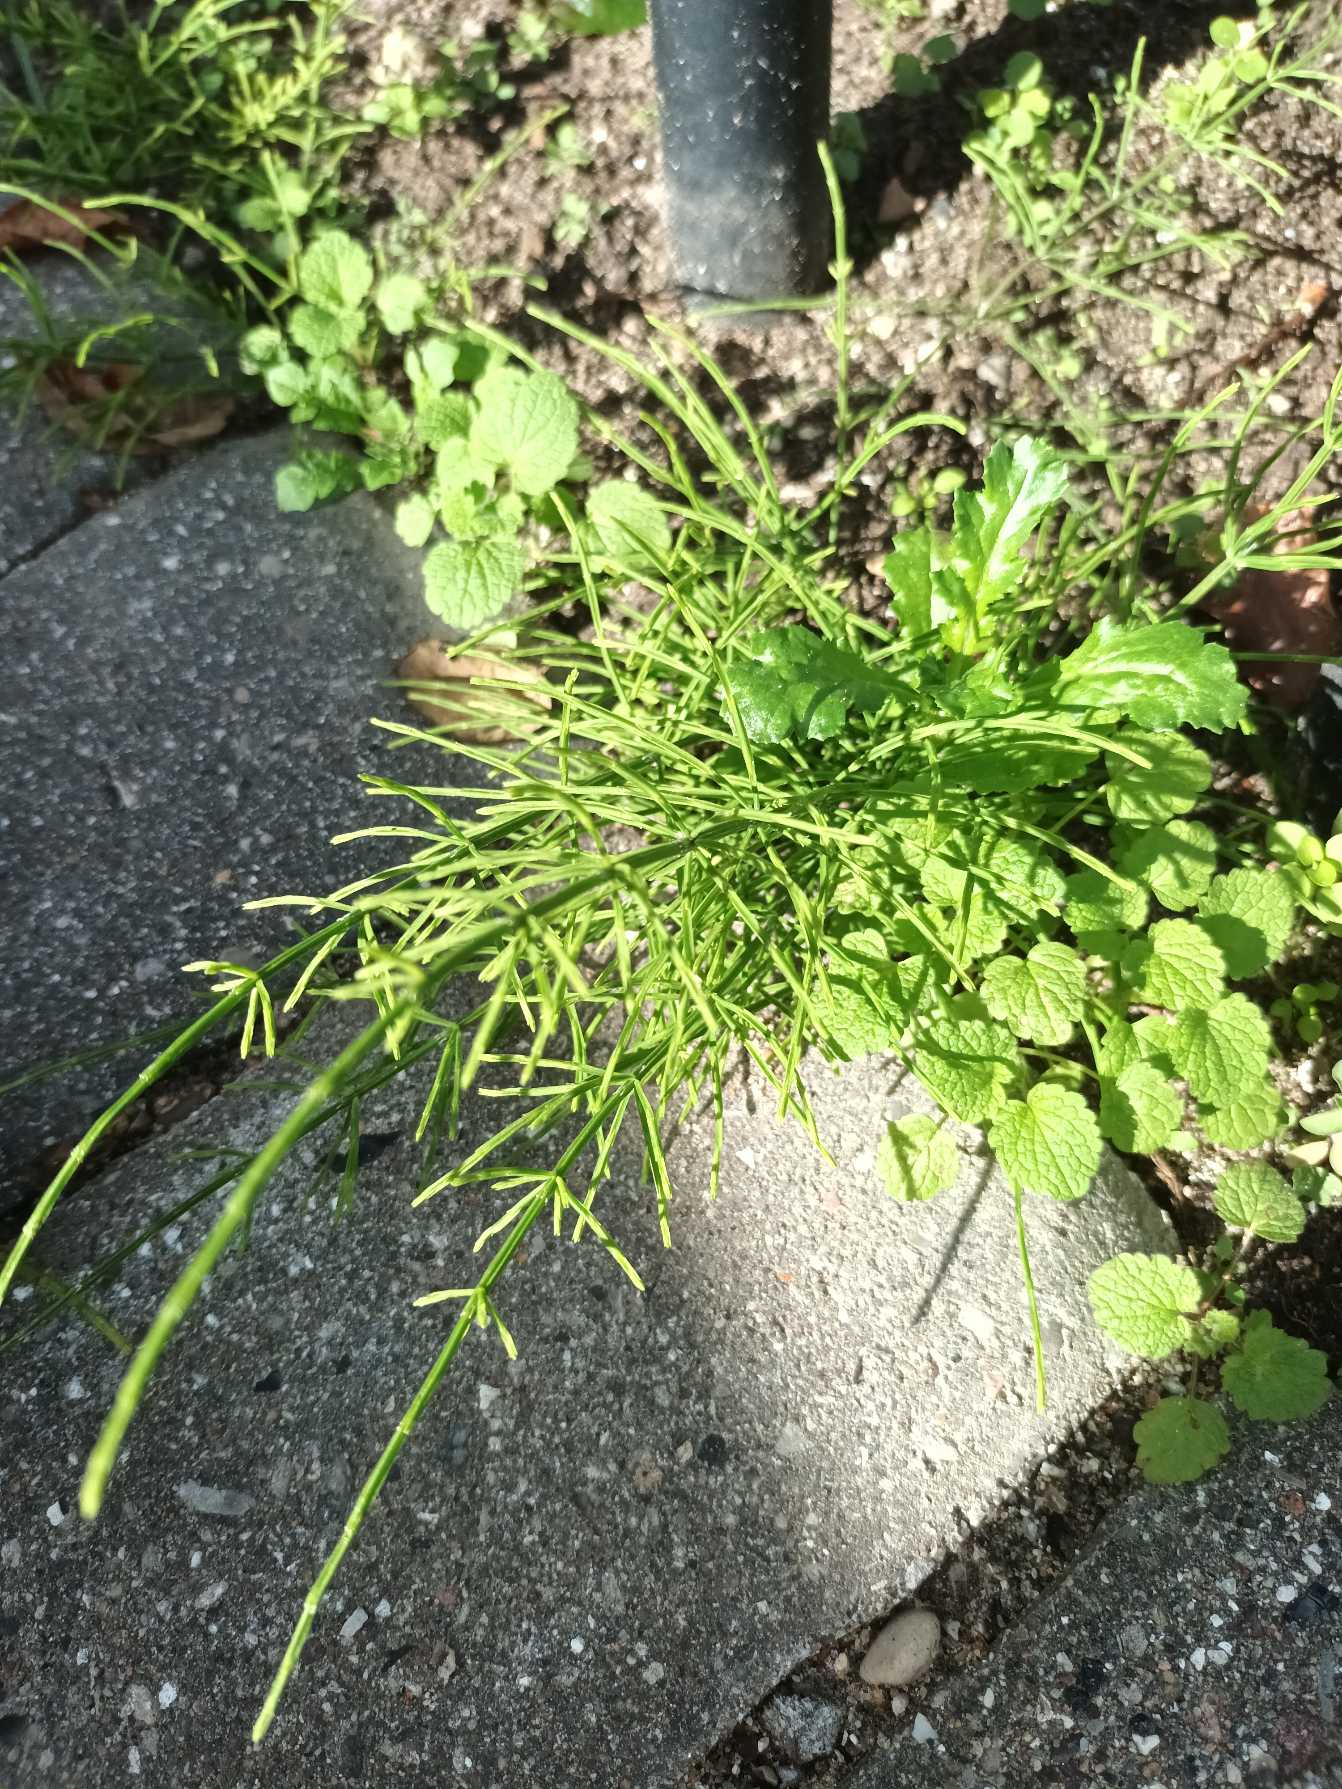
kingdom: Plantae
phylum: Tracheophyta
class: Polypodiopsida
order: Equisetales
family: Equisetaceae
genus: Equisetum
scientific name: Equisetum arvense
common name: Ager-padderok
